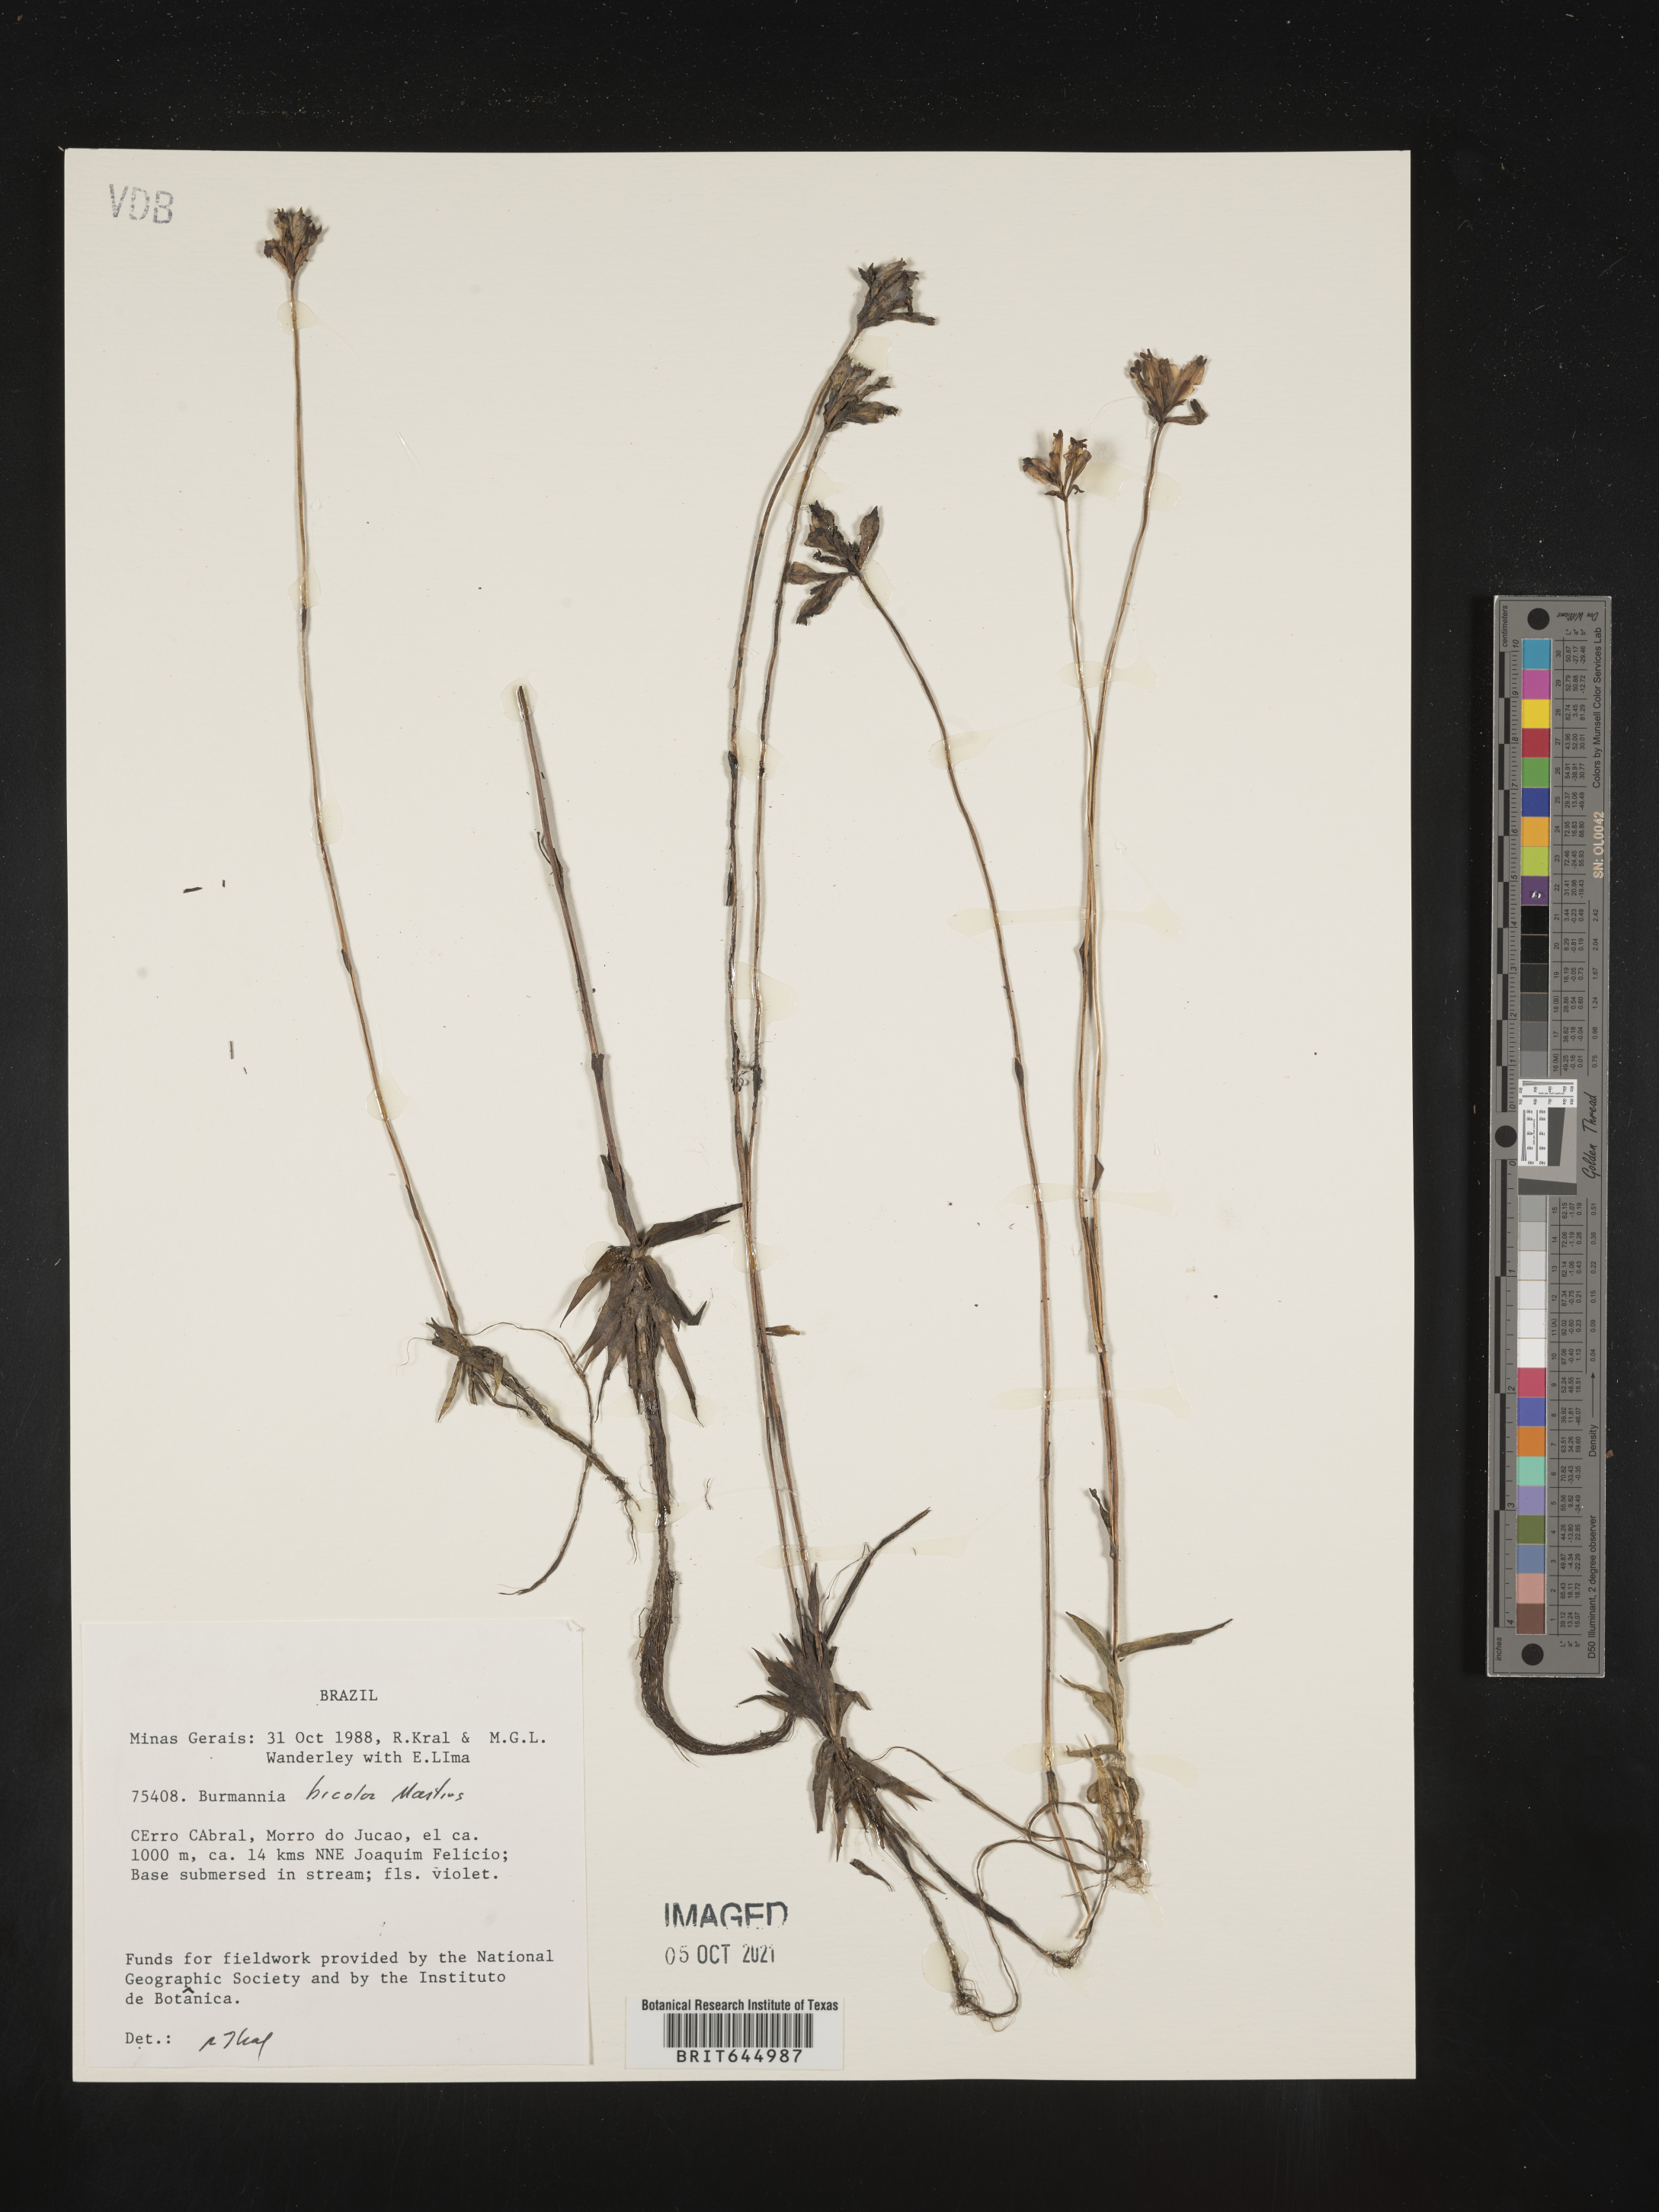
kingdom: Plantae
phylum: Tracheophyta
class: Liliopsida
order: Dioscoreales
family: Burmanniaceae
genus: Burmannia
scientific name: Burmannia bicolor
